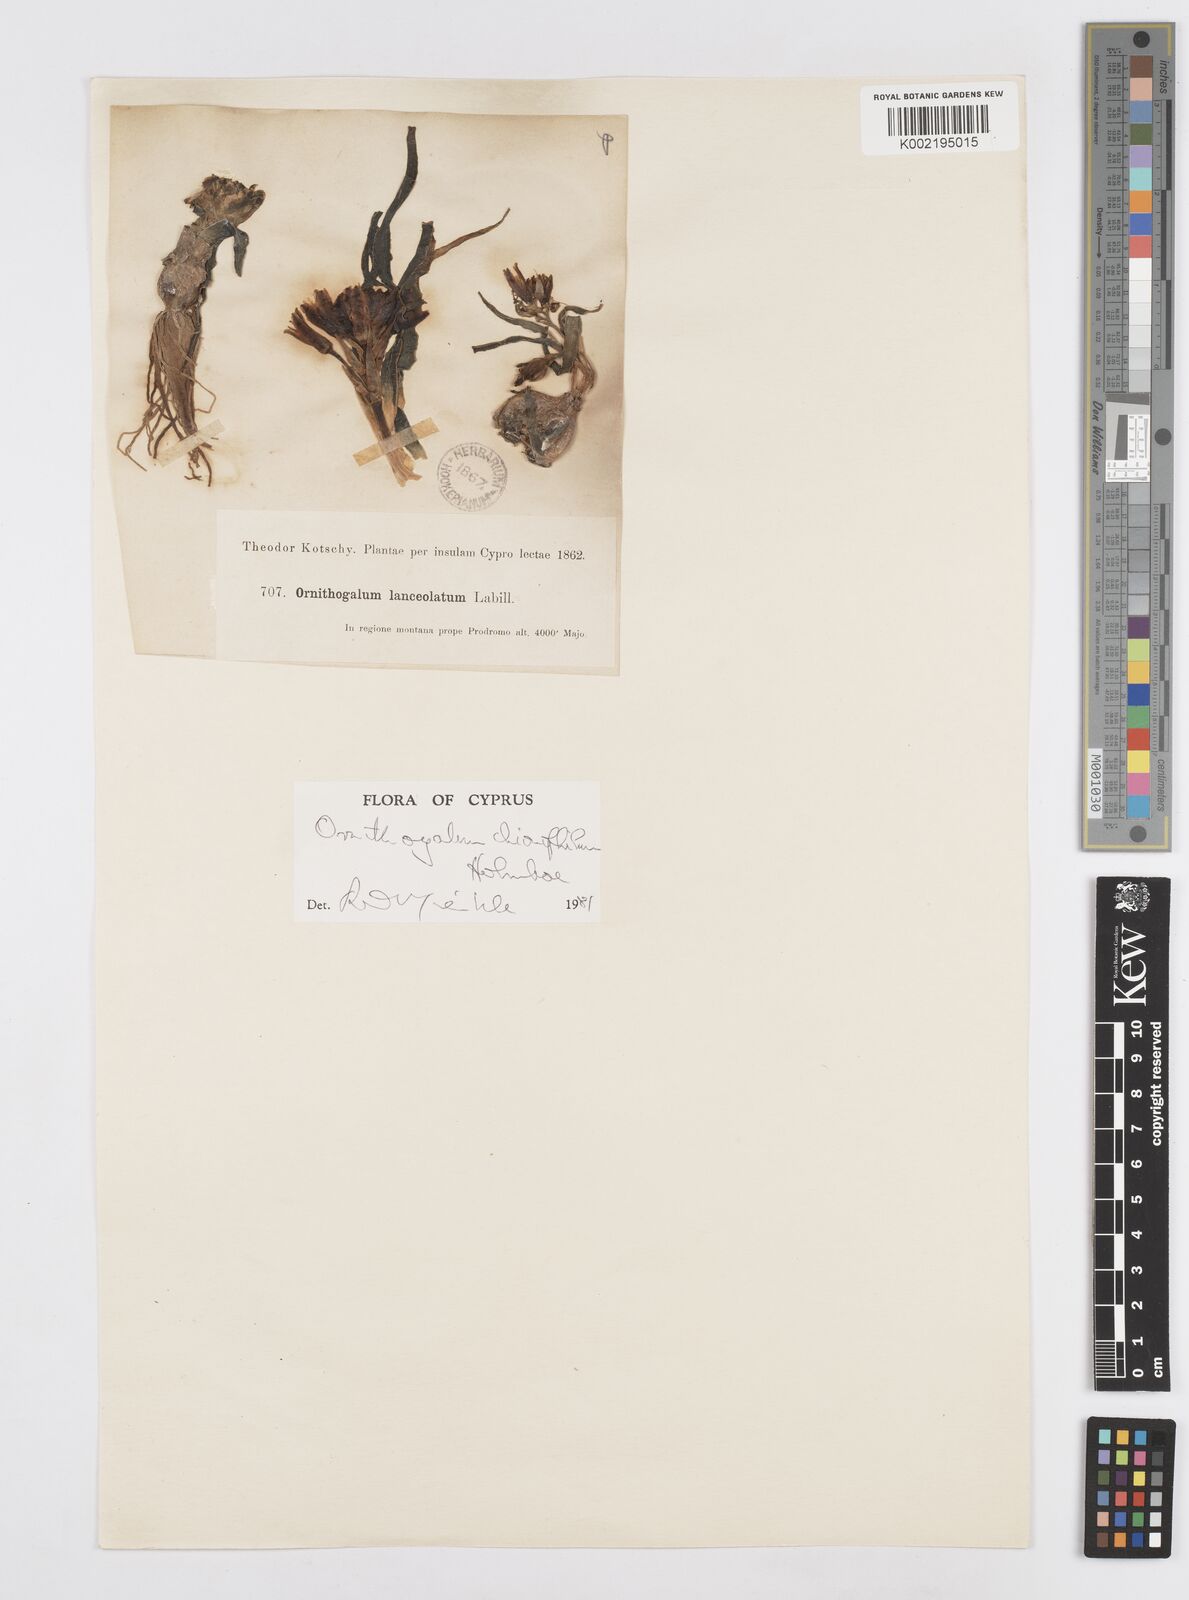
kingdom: Plantae
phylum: Tracheophyta
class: Liliopsida
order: Asparagales
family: Asparagaceae
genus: Ornithogalum
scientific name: Ornithogalum chionophilum
